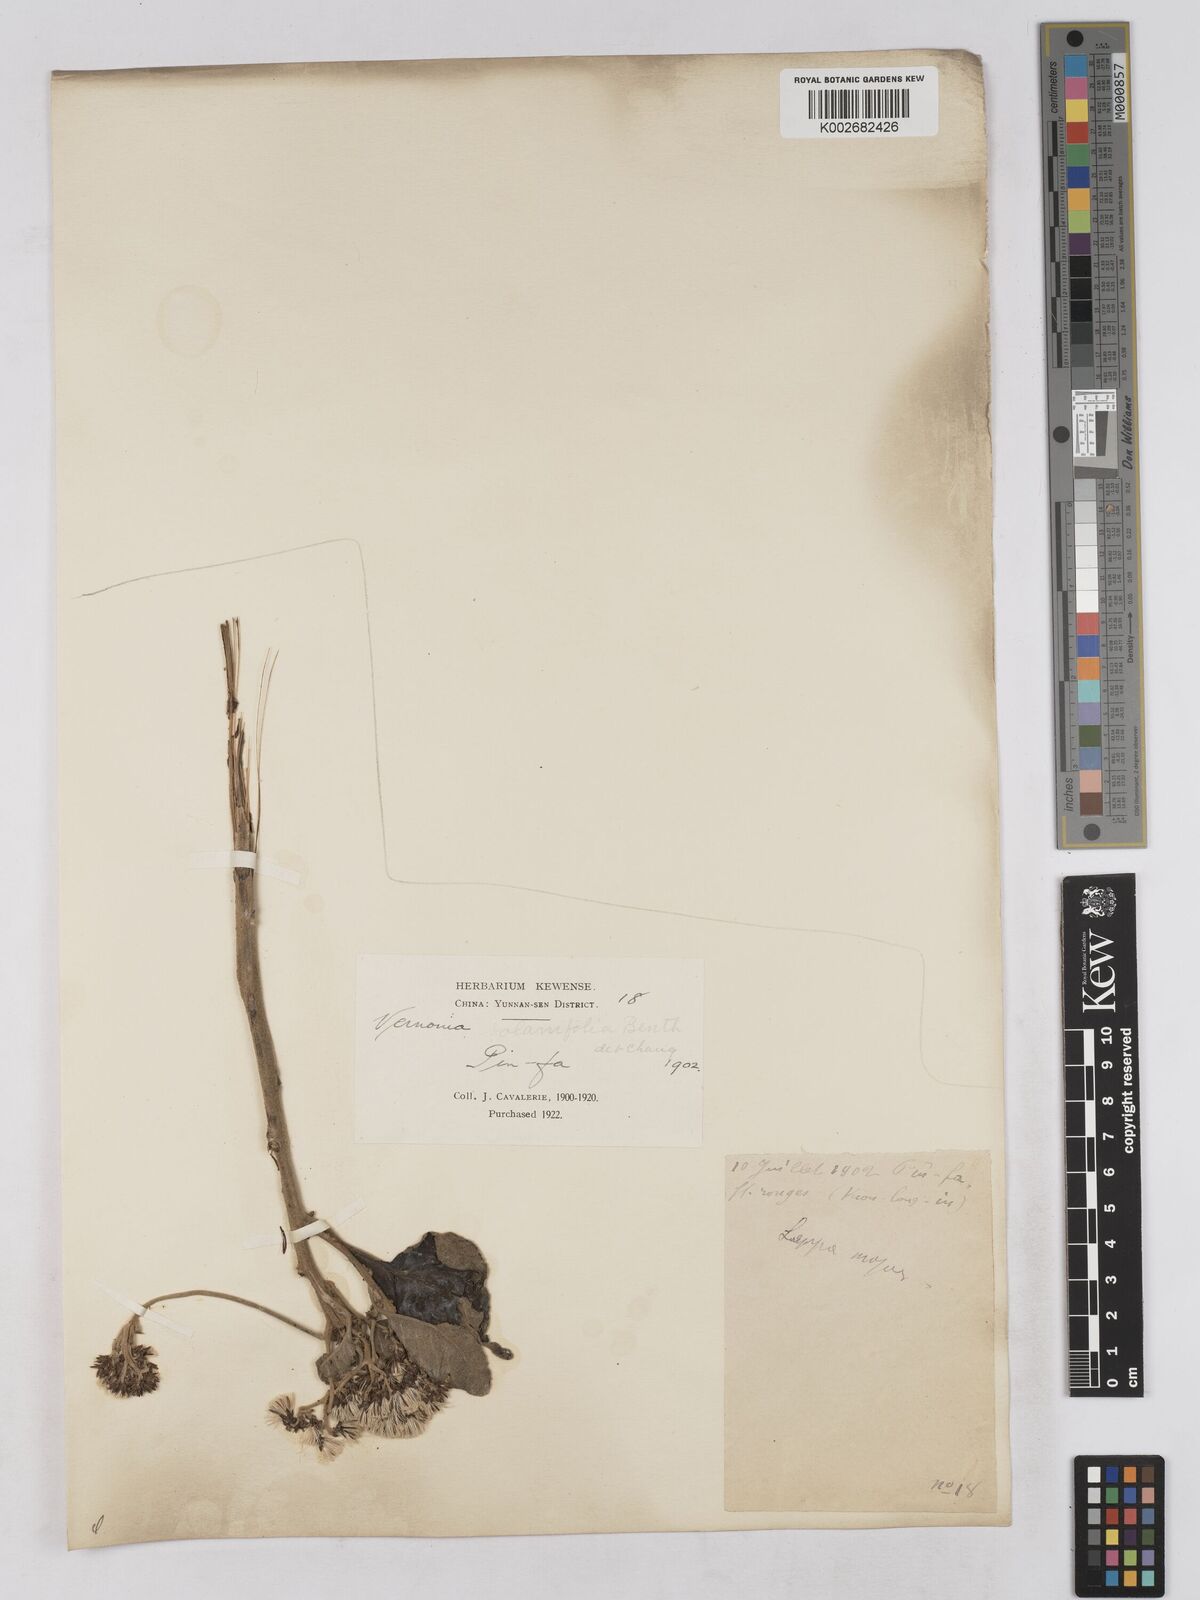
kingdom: Plantae
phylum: Tracheophyta
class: Magnoliopsida
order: Asterales
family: Asteraceae
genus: Strobocalyx
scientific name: Strobocalyx solanifolia
